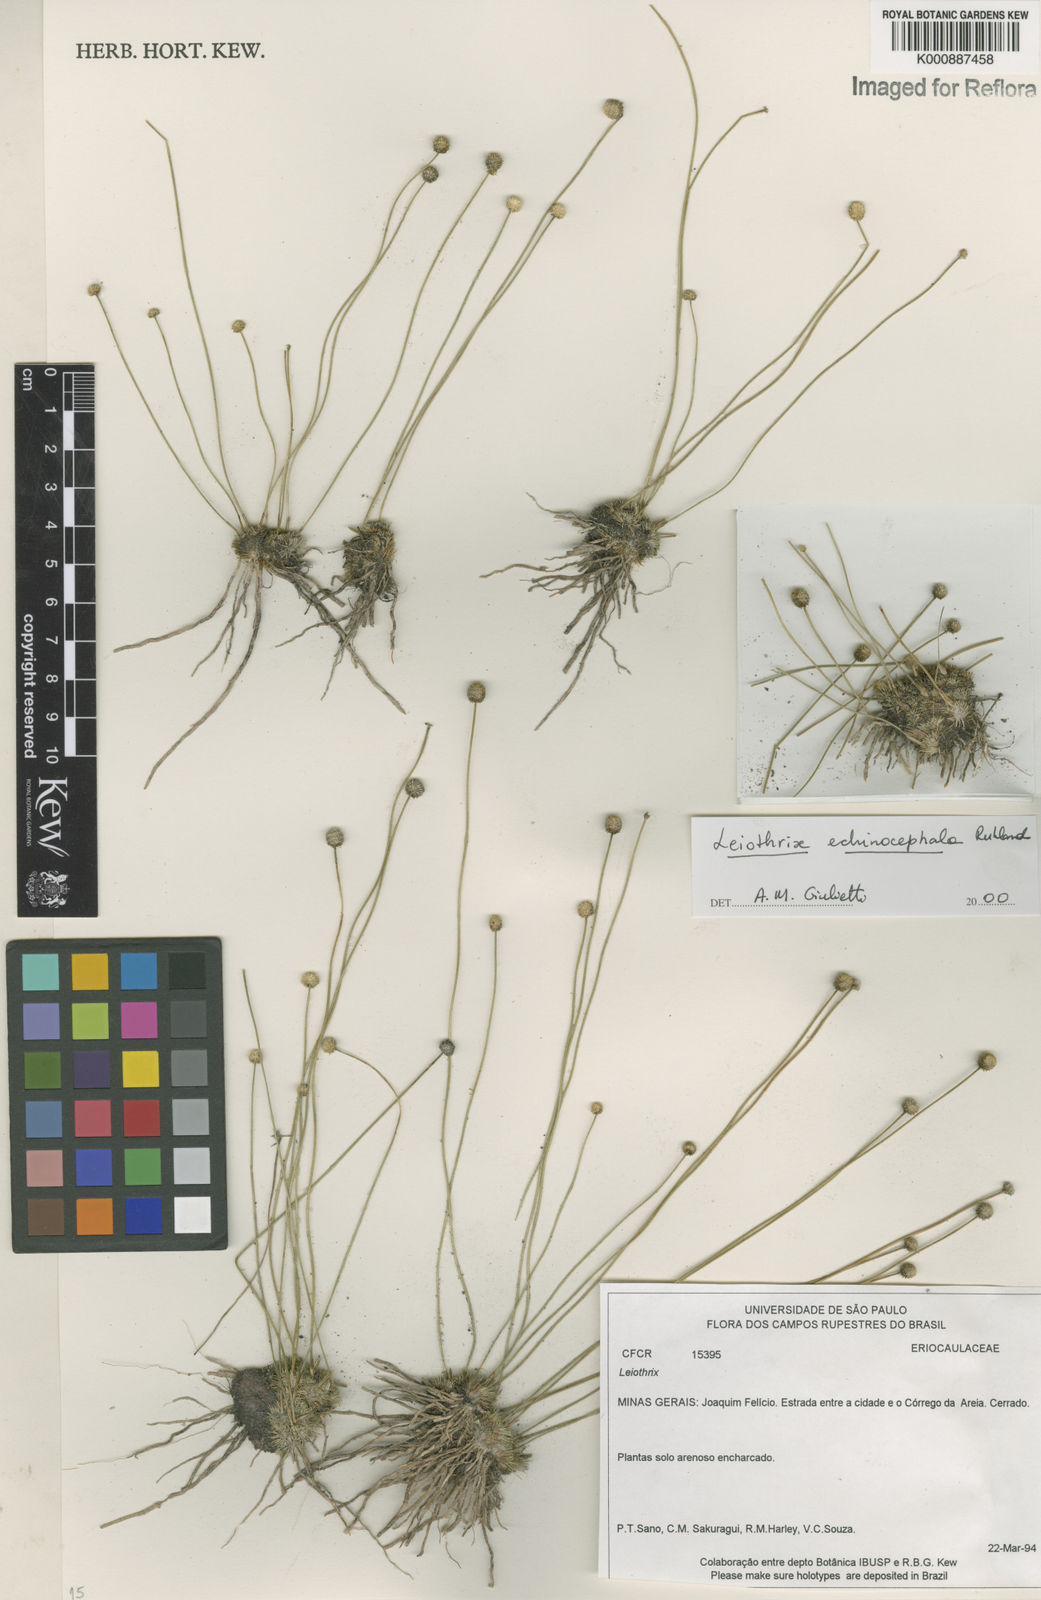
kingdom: Plantae
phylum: Tracheophyta
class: Liliopsida
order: Poales
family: Eriocaulaceae
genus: Leiothrix
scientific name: Leiothrix echinocephala
